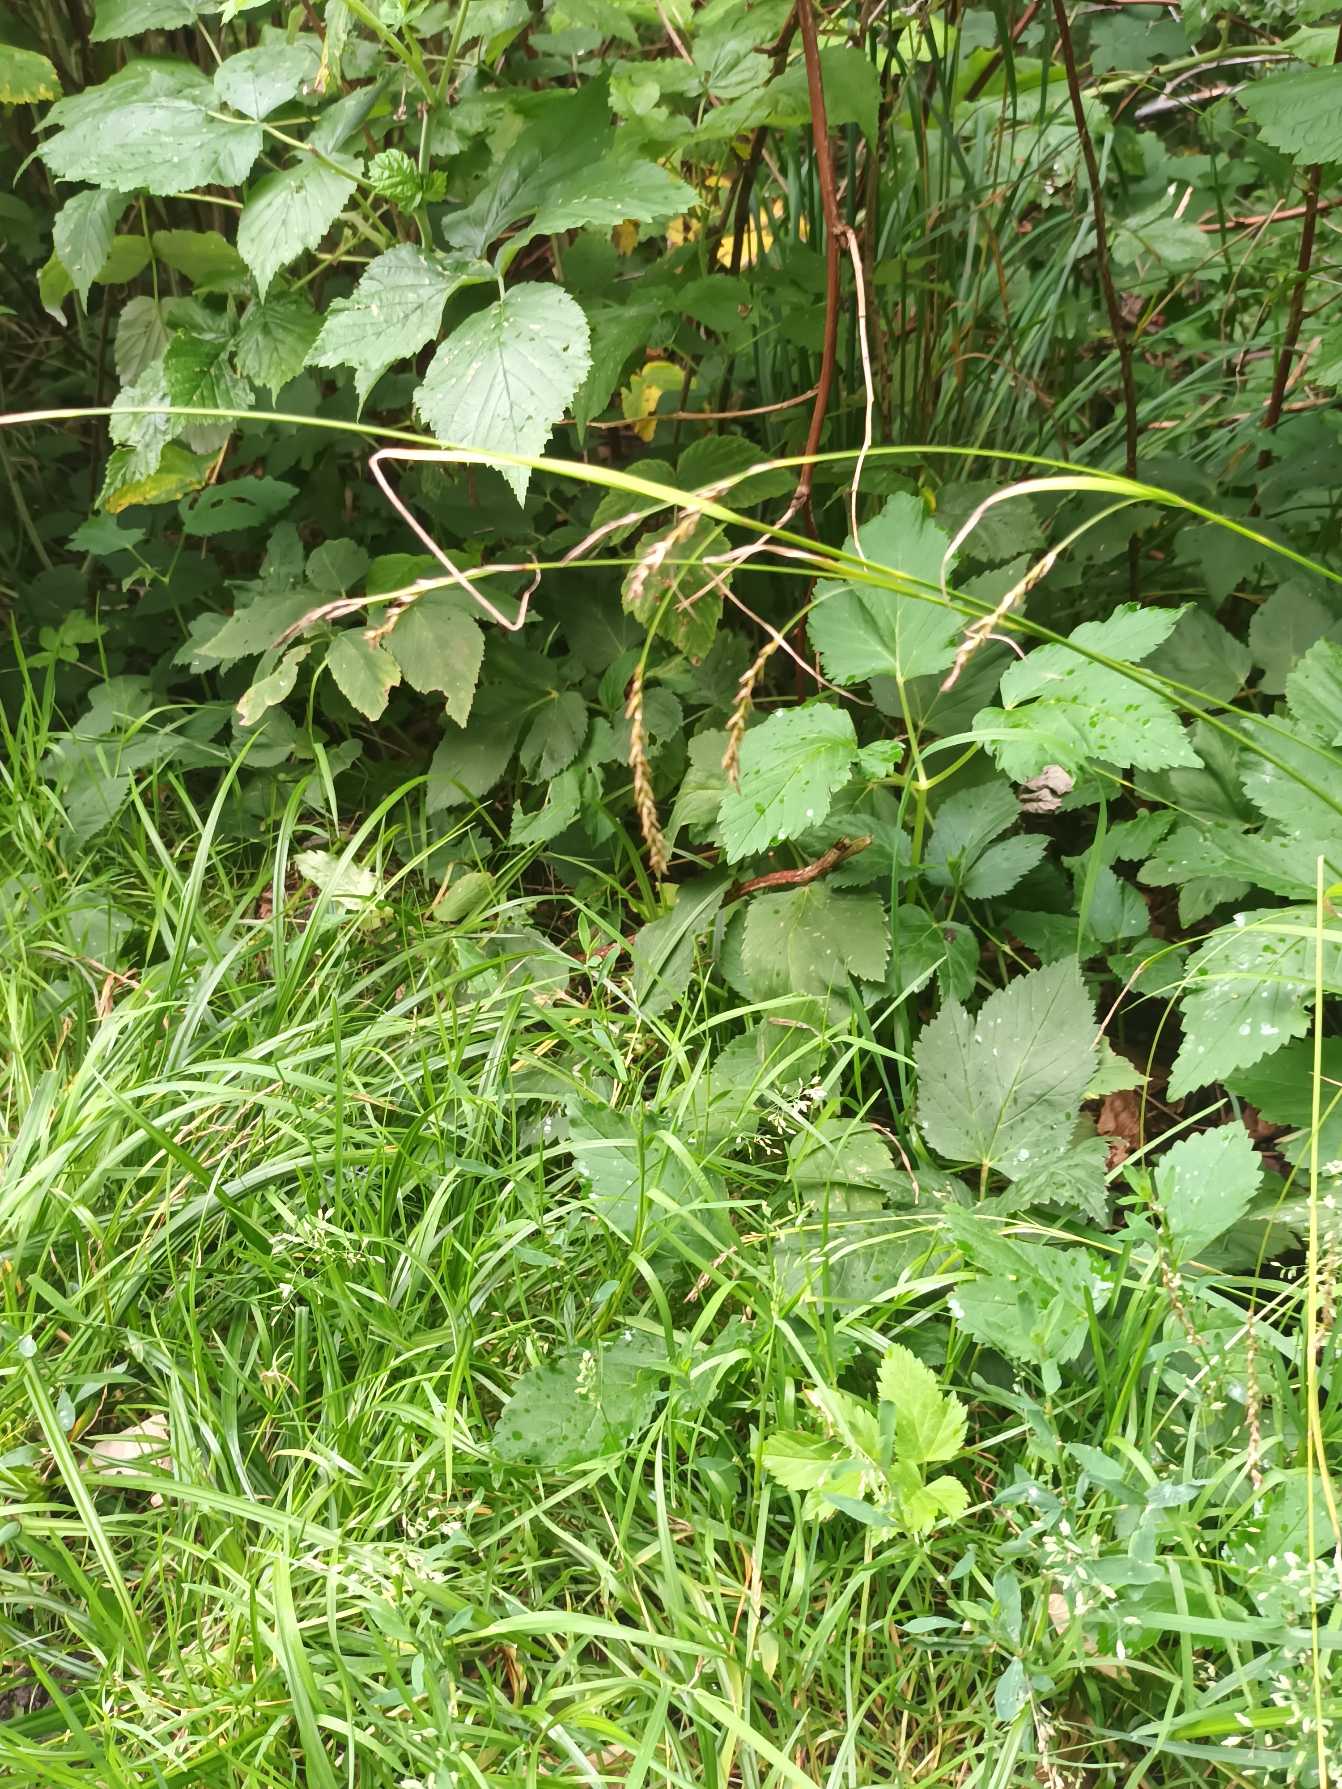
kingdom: Plantae
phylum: Tracheophyta
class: Liliopsida
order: Poales
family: Cyperaceae
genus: Carex
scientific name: Carex sylvatica
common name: Skov-star
